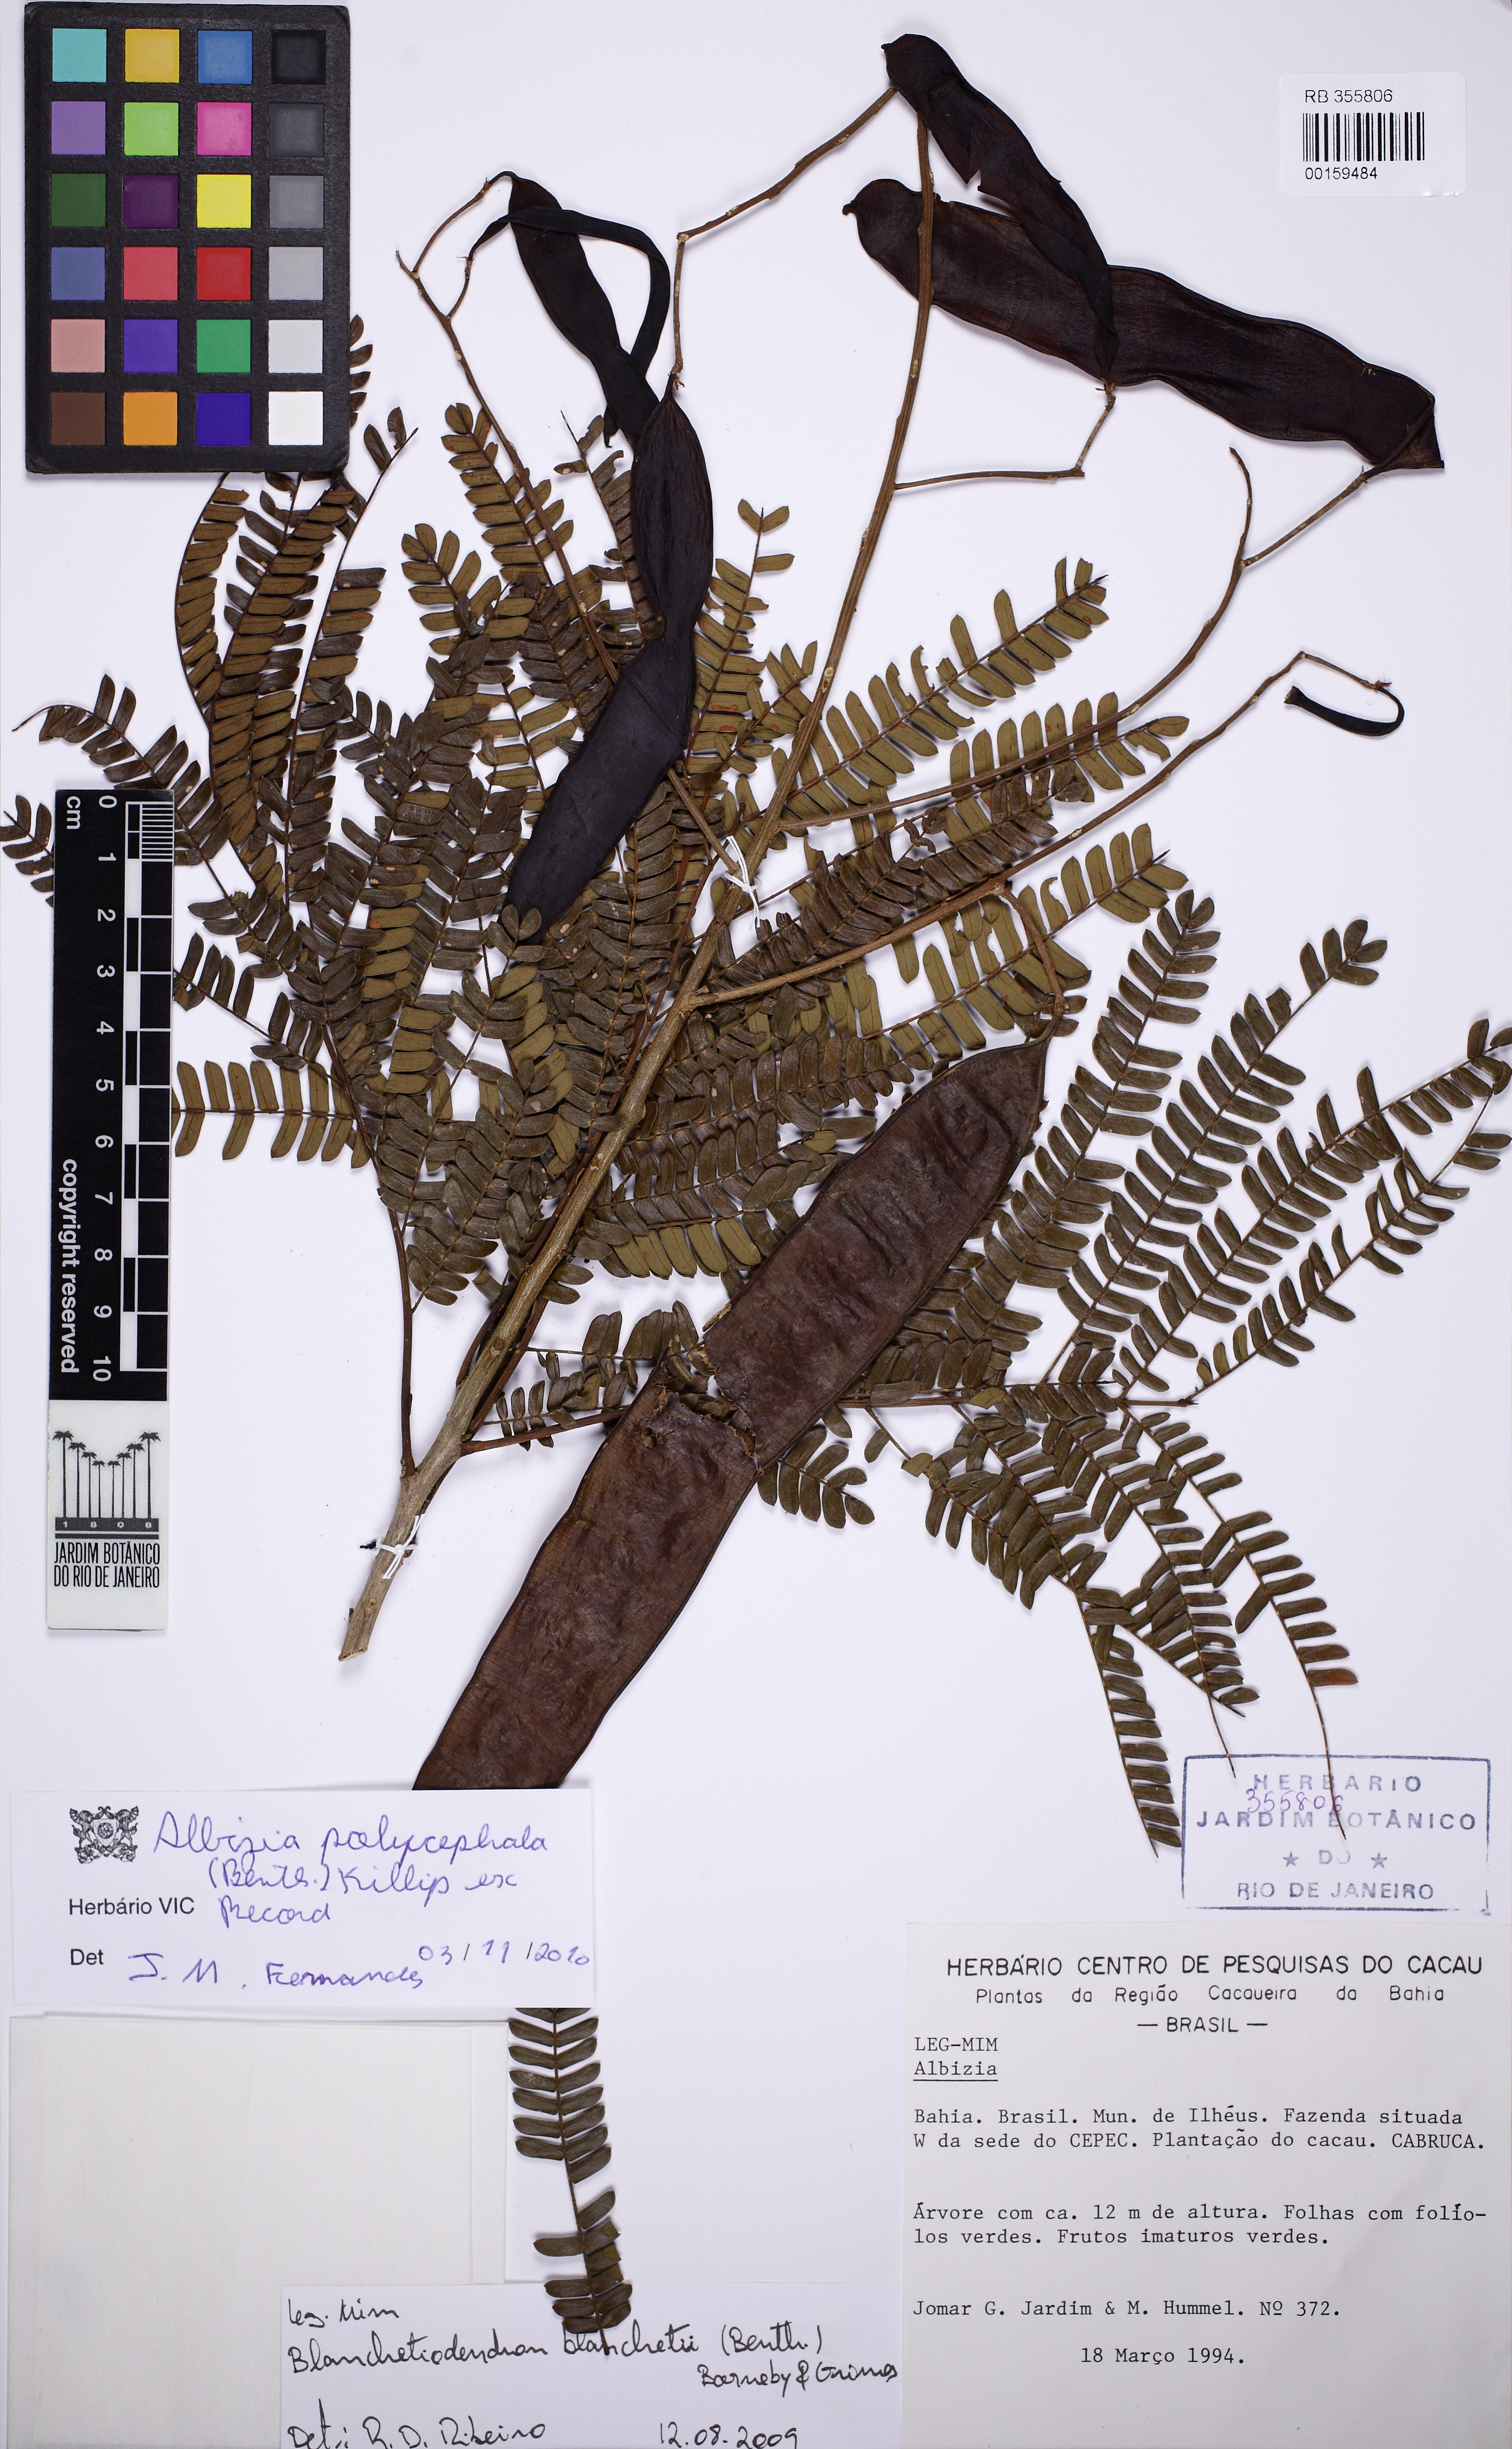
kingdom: Plantae
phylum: Tracheophyta
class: Magnoliopsida
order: Fabales
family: Fabaceae
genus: Albizia
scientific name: Albizia polycephala
